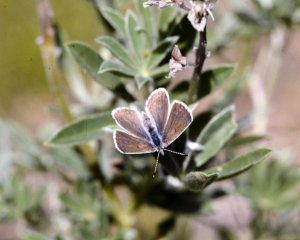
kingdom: Animalia
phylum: Arthropoda
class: Insecta
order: Lepidoptera
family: Lycaenidae
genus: Icaricia
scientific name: Icaricia icarioides
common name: Boisduval's Blue
